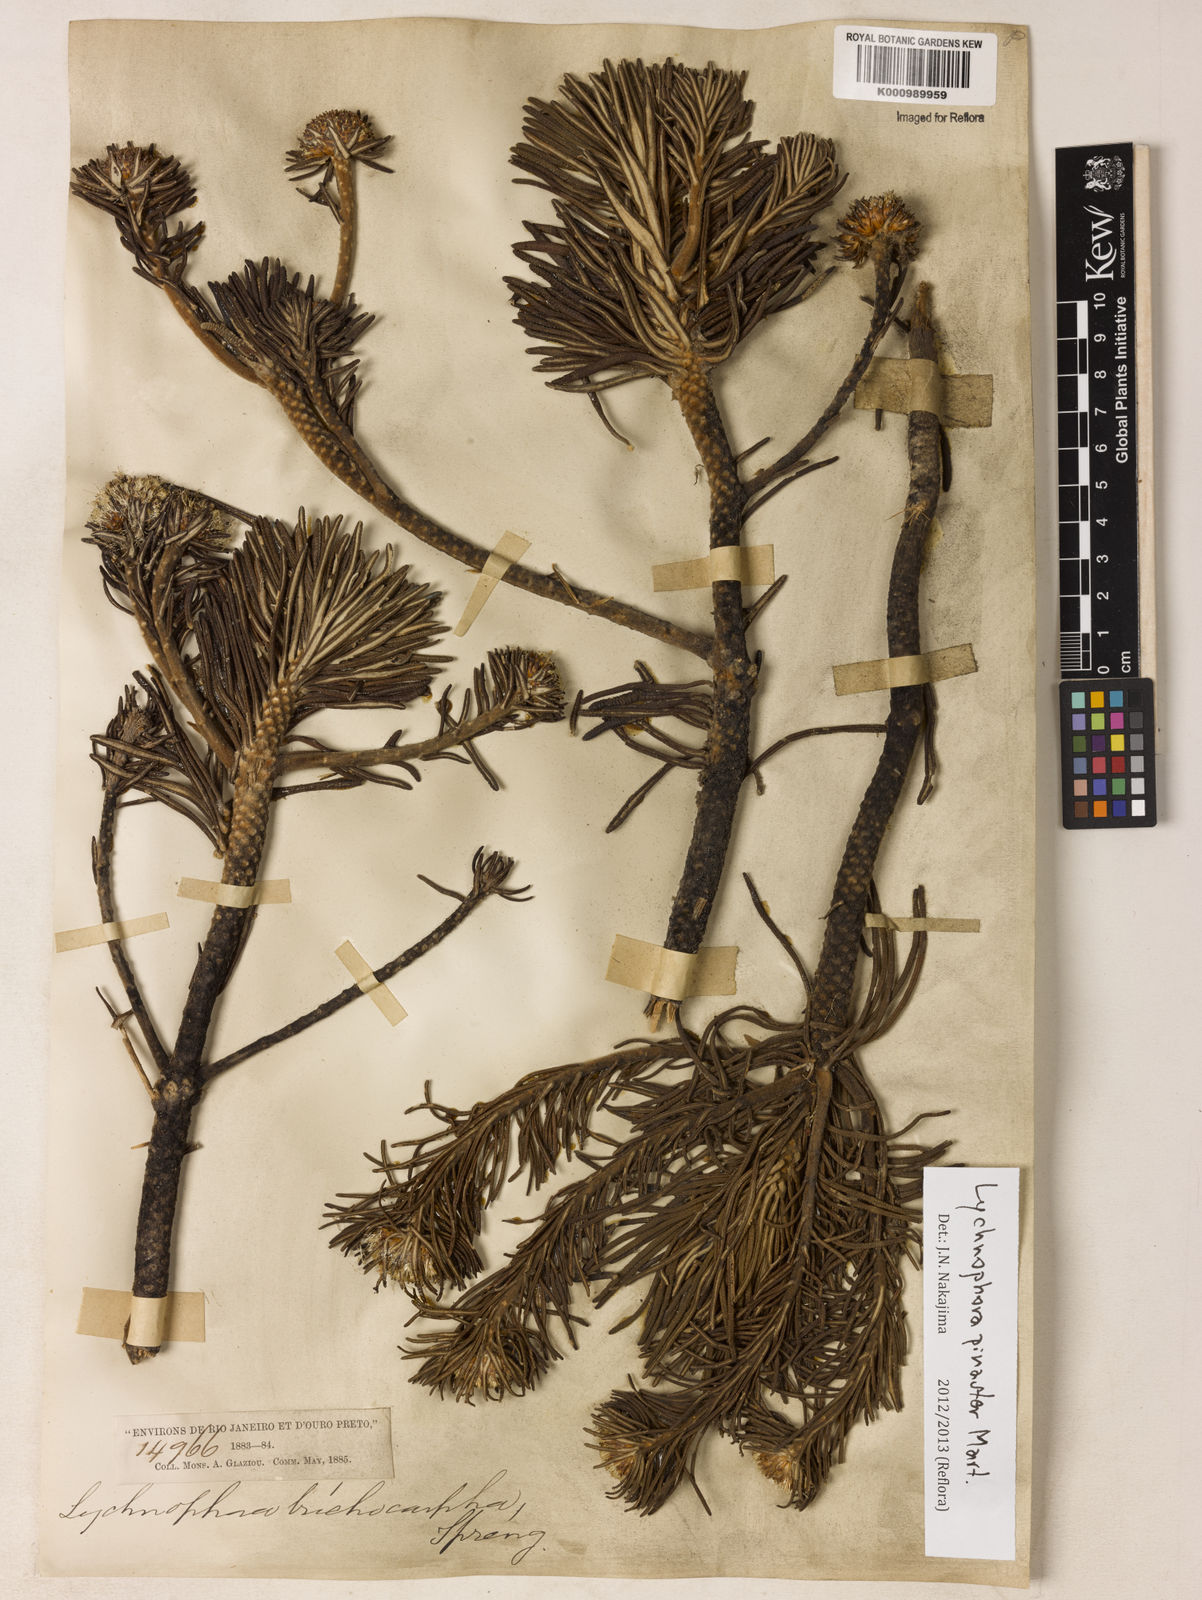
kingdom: Plantae
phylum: Tracheophyta
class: Magnoliopsida
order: Asterales
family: Asteraceae
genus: Lychnophora
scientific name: Lychnophora pinaster
